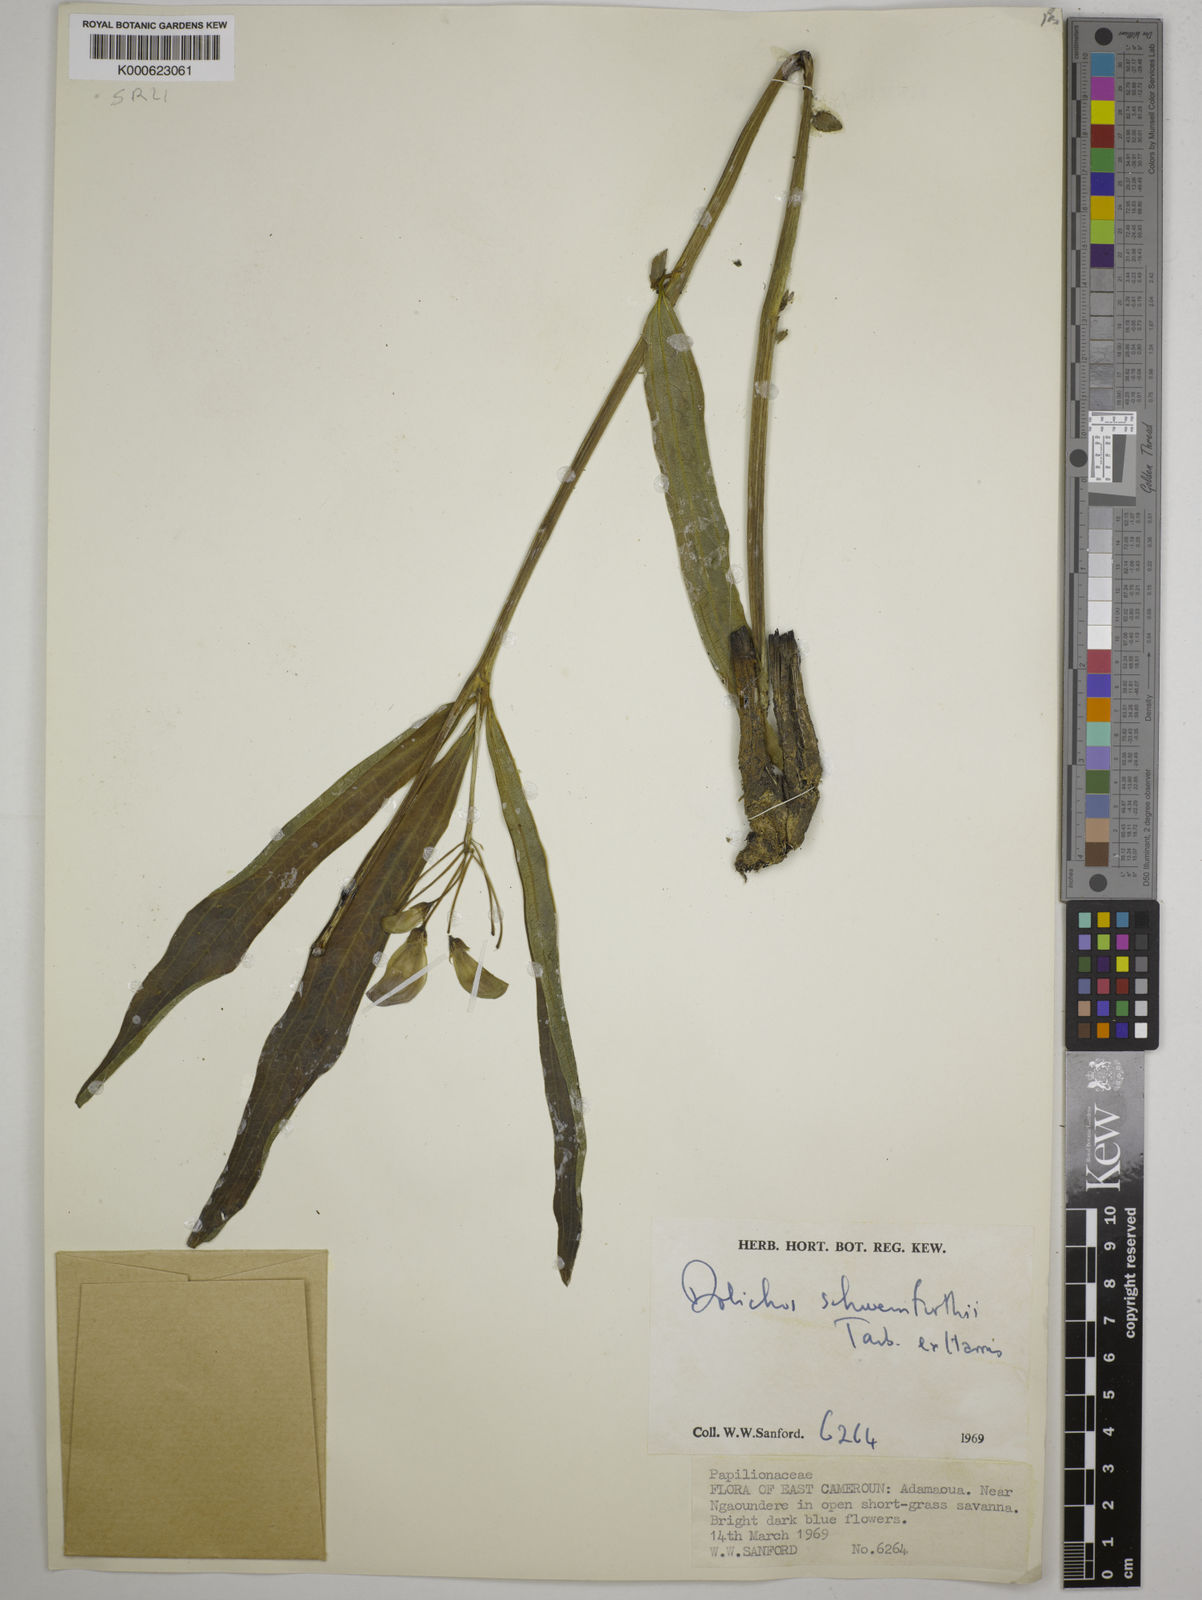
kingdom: Plantae
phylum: Tracheophyta
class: Magnoliopsida
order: Fabales
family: Fabaceae
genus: Dolichos
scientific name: Dolichos
